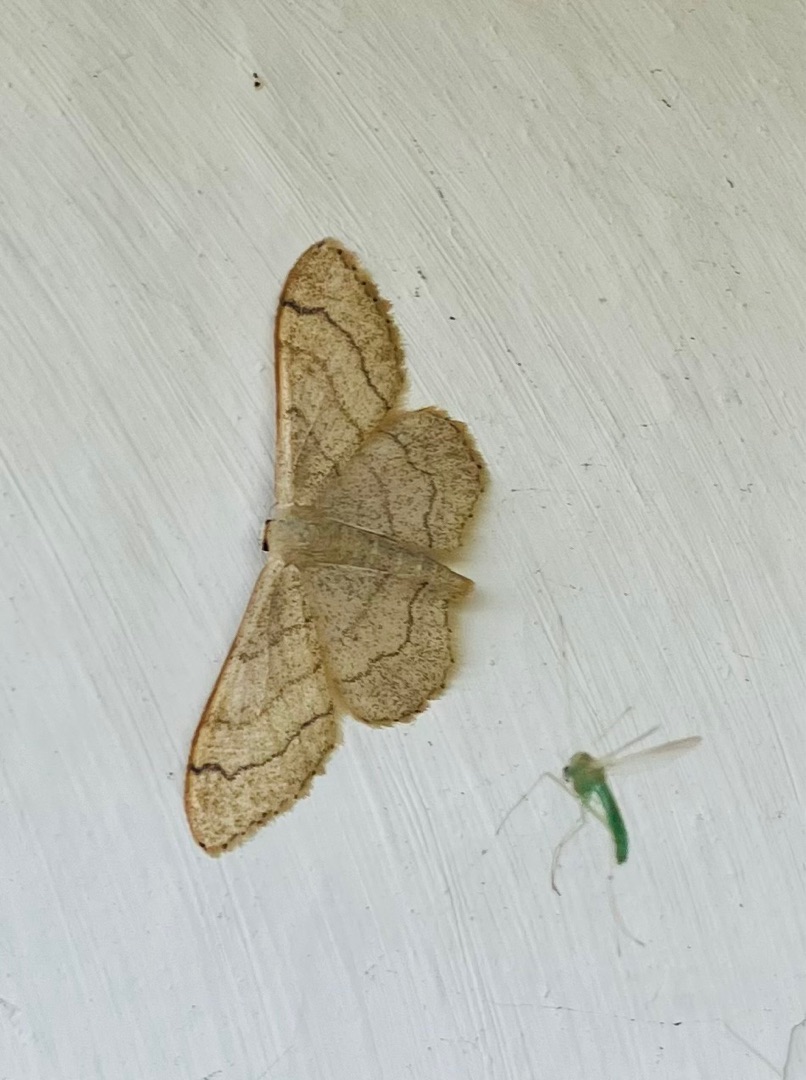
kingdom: Animalia
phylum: Arthropoda
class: Insecta
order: Lepidoptera
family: Geometridae
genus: Idaea
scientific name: Idaea aversata
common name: Vinkelstreget løvmåler
